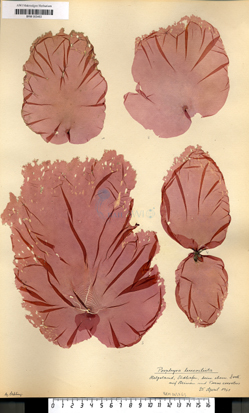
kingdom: Plantae
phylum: Rhodophyta
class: Bangiophyceae
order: Bangiales
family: Bangiaceae
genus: Neopyropia
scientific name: Neopyropia spec
